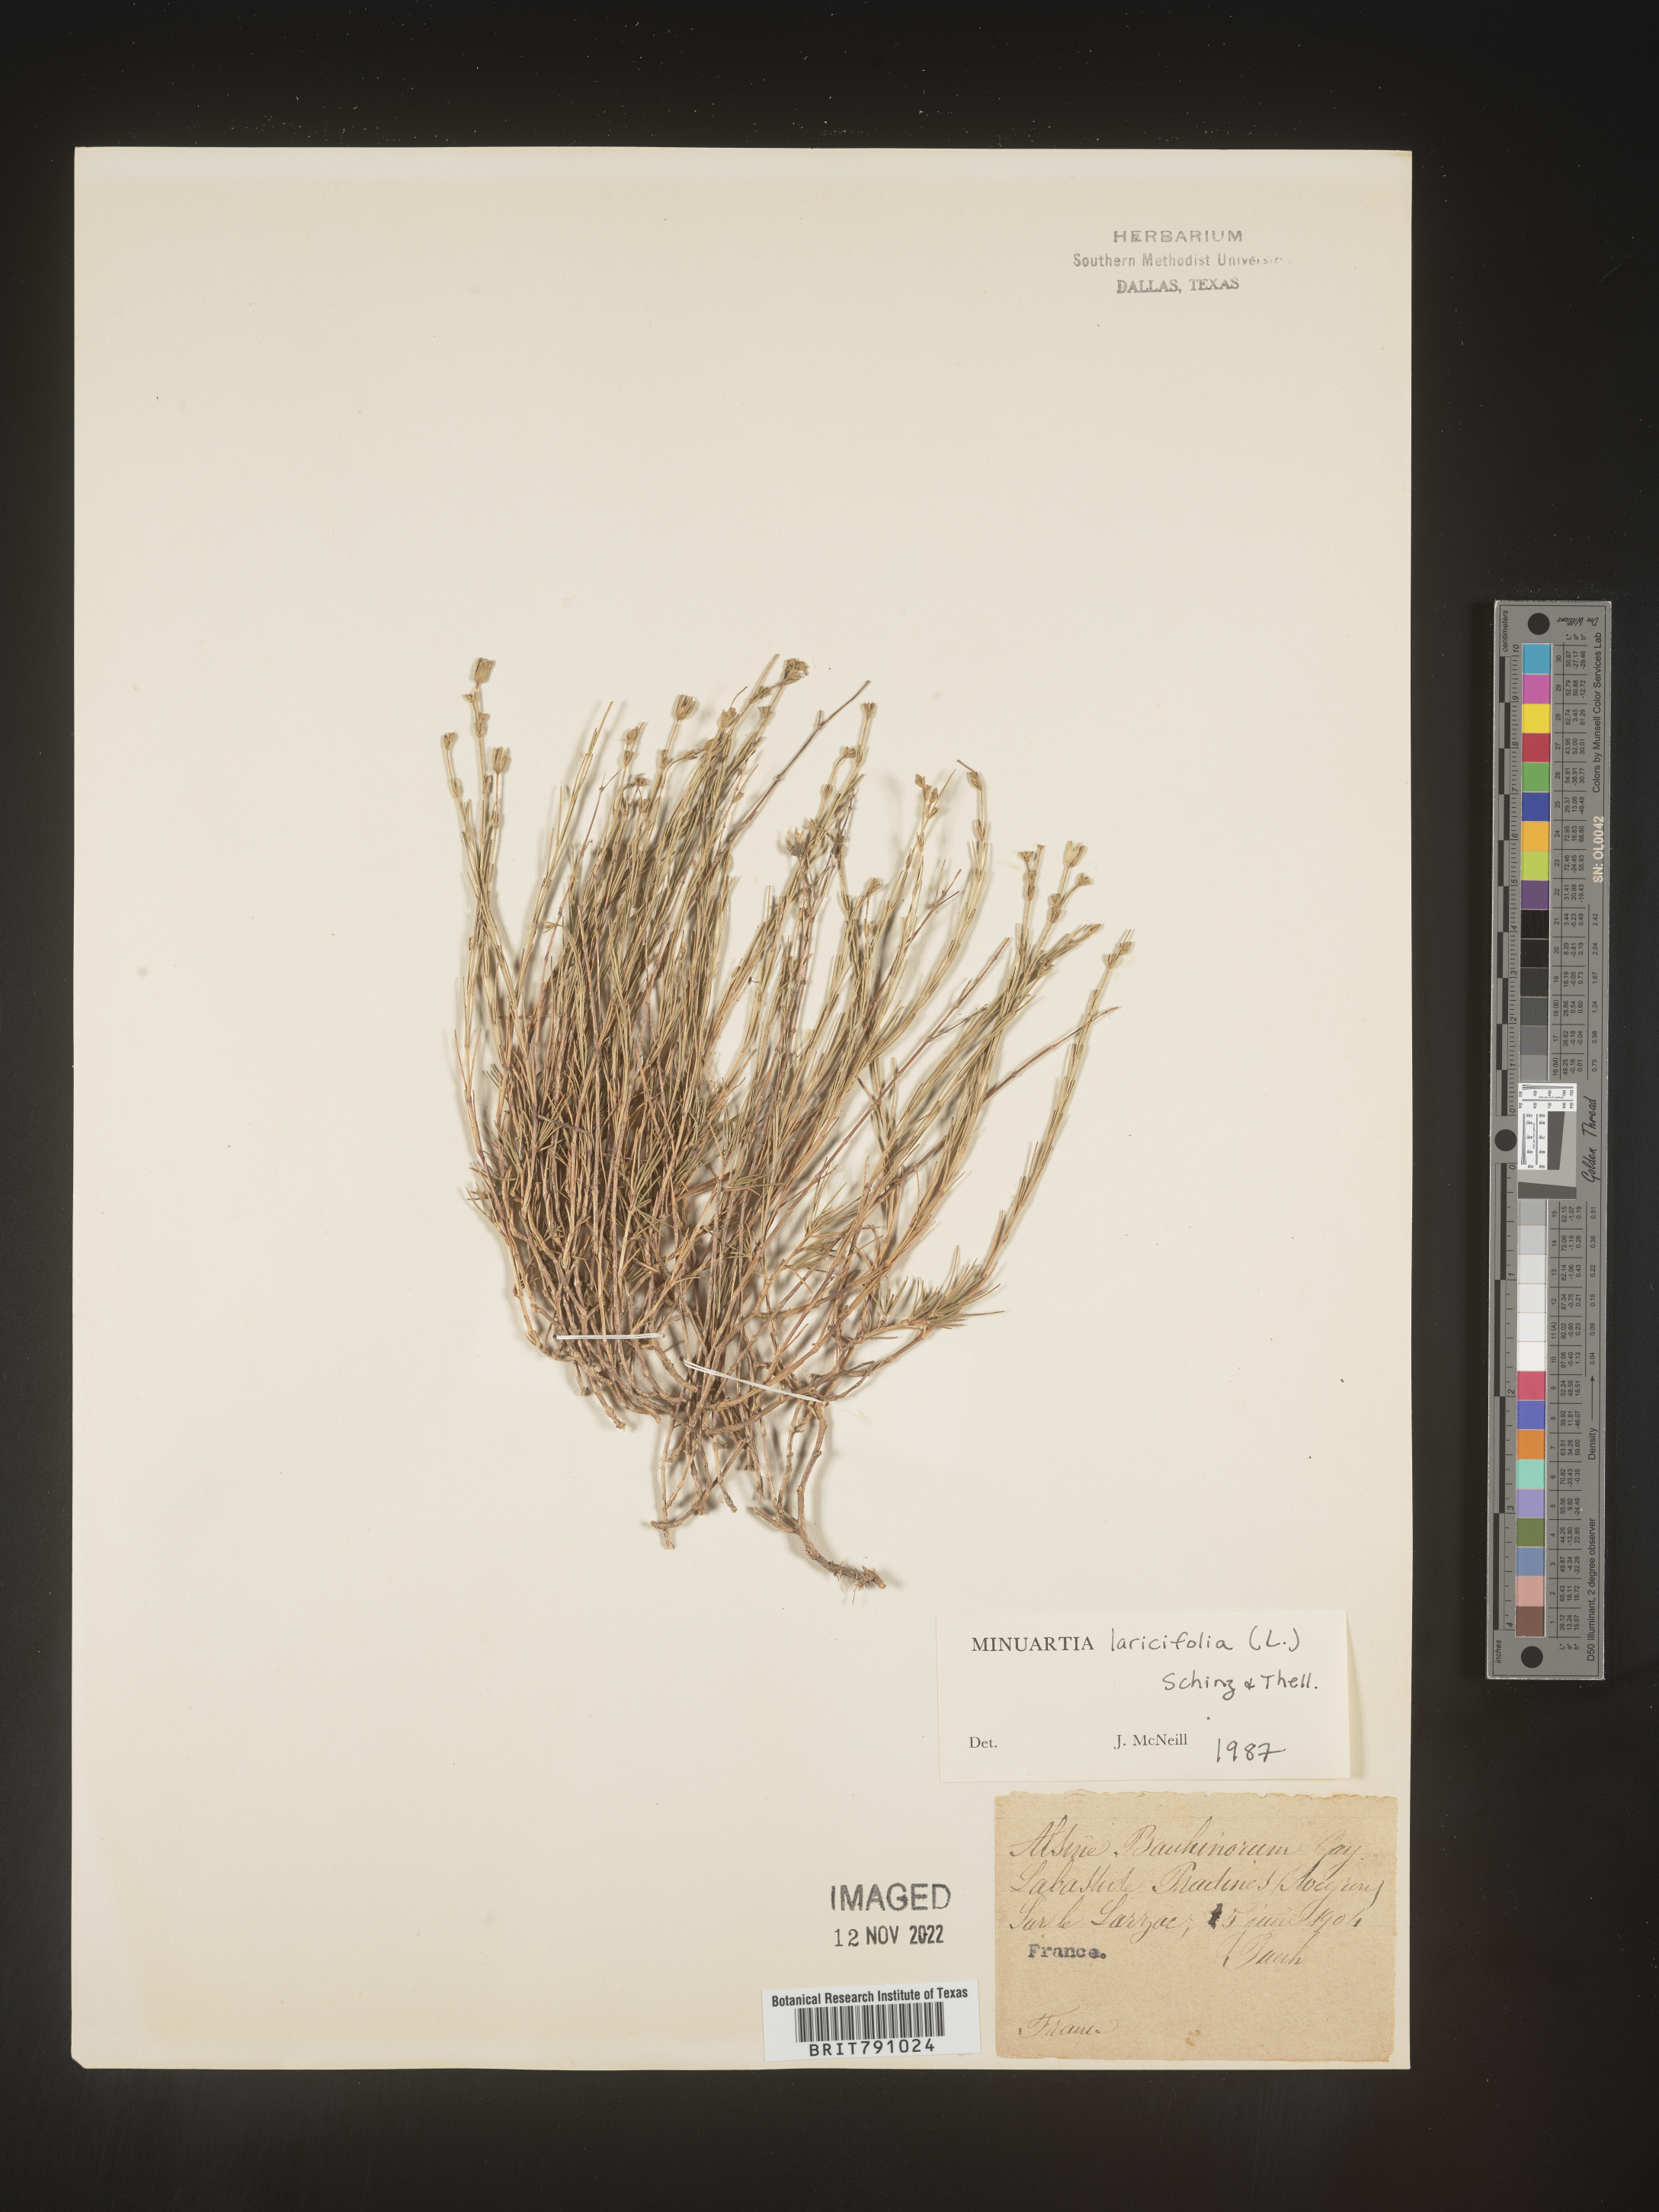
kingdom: Plantae
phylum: Tracheophyta
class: Magnoliopsida
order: Caryophyllales
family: Caryophyllaceae
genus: Minuartia
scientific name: Minuartia
